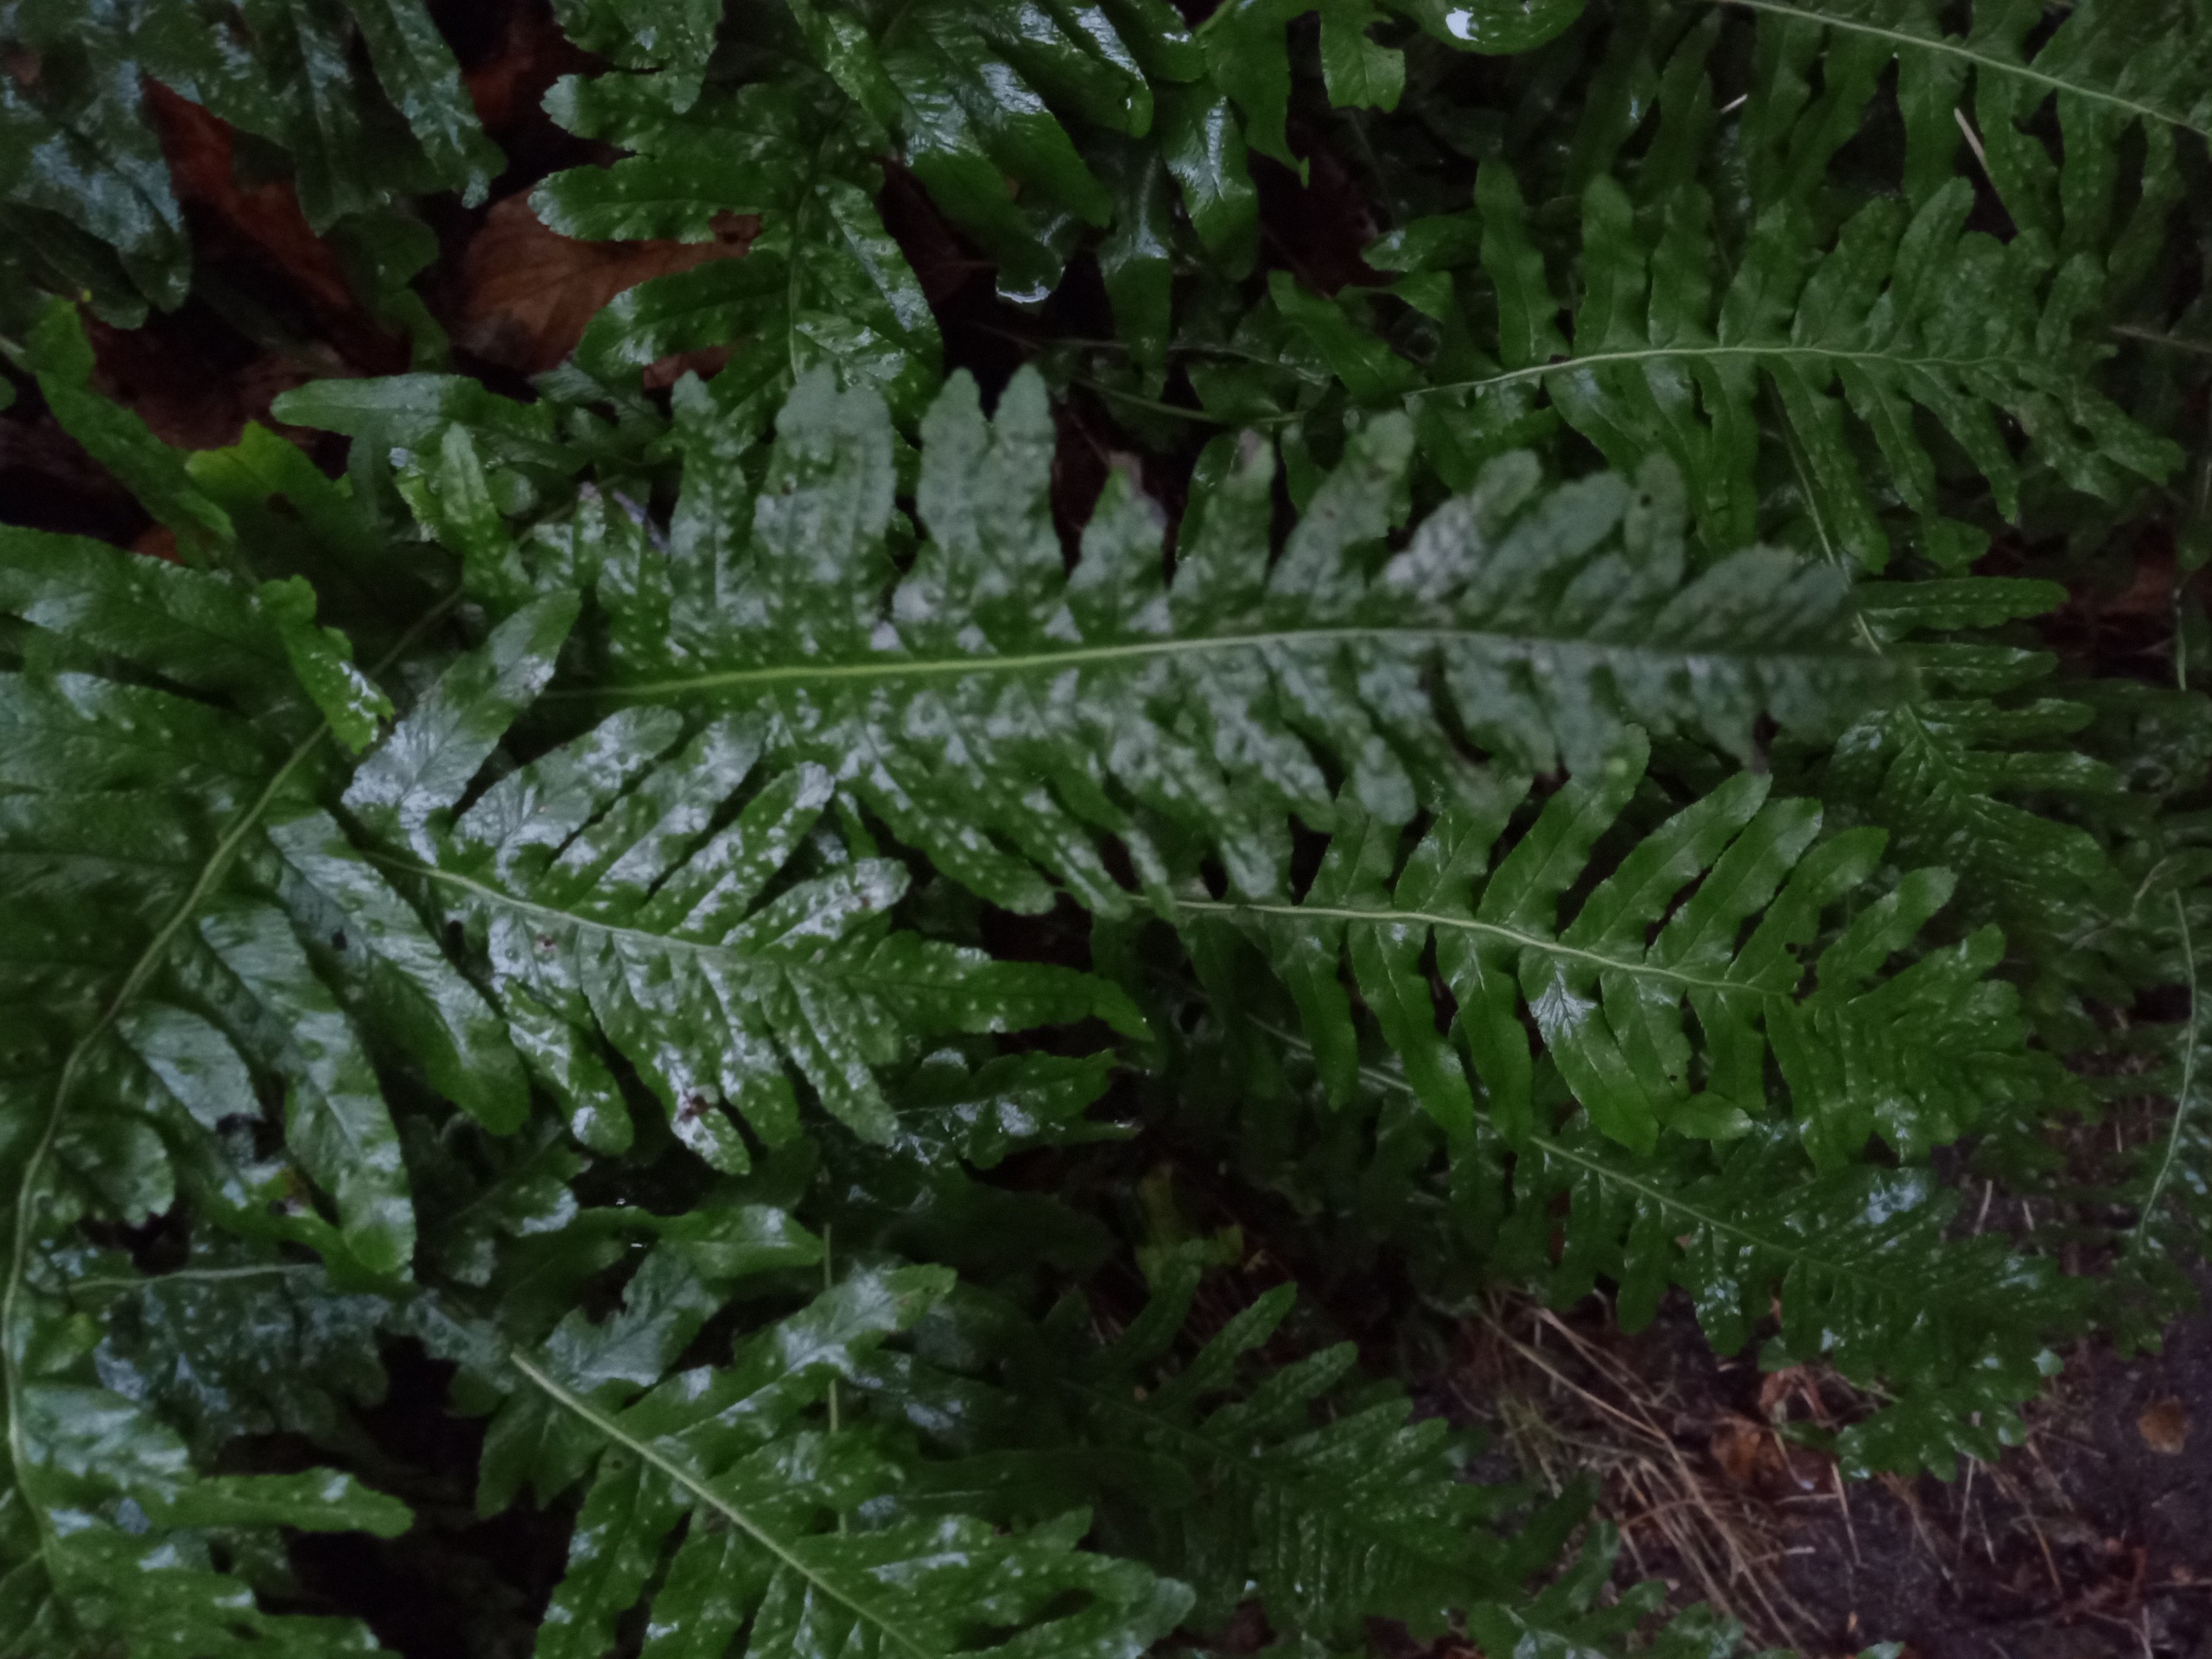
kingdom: Plantae
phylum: Tracheophyta
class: Polypodiopsida
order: Polypodiales
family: Polypodiaceae
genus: Polypodium
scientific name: Polypodium vulgare
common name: Almindelig engelsød
